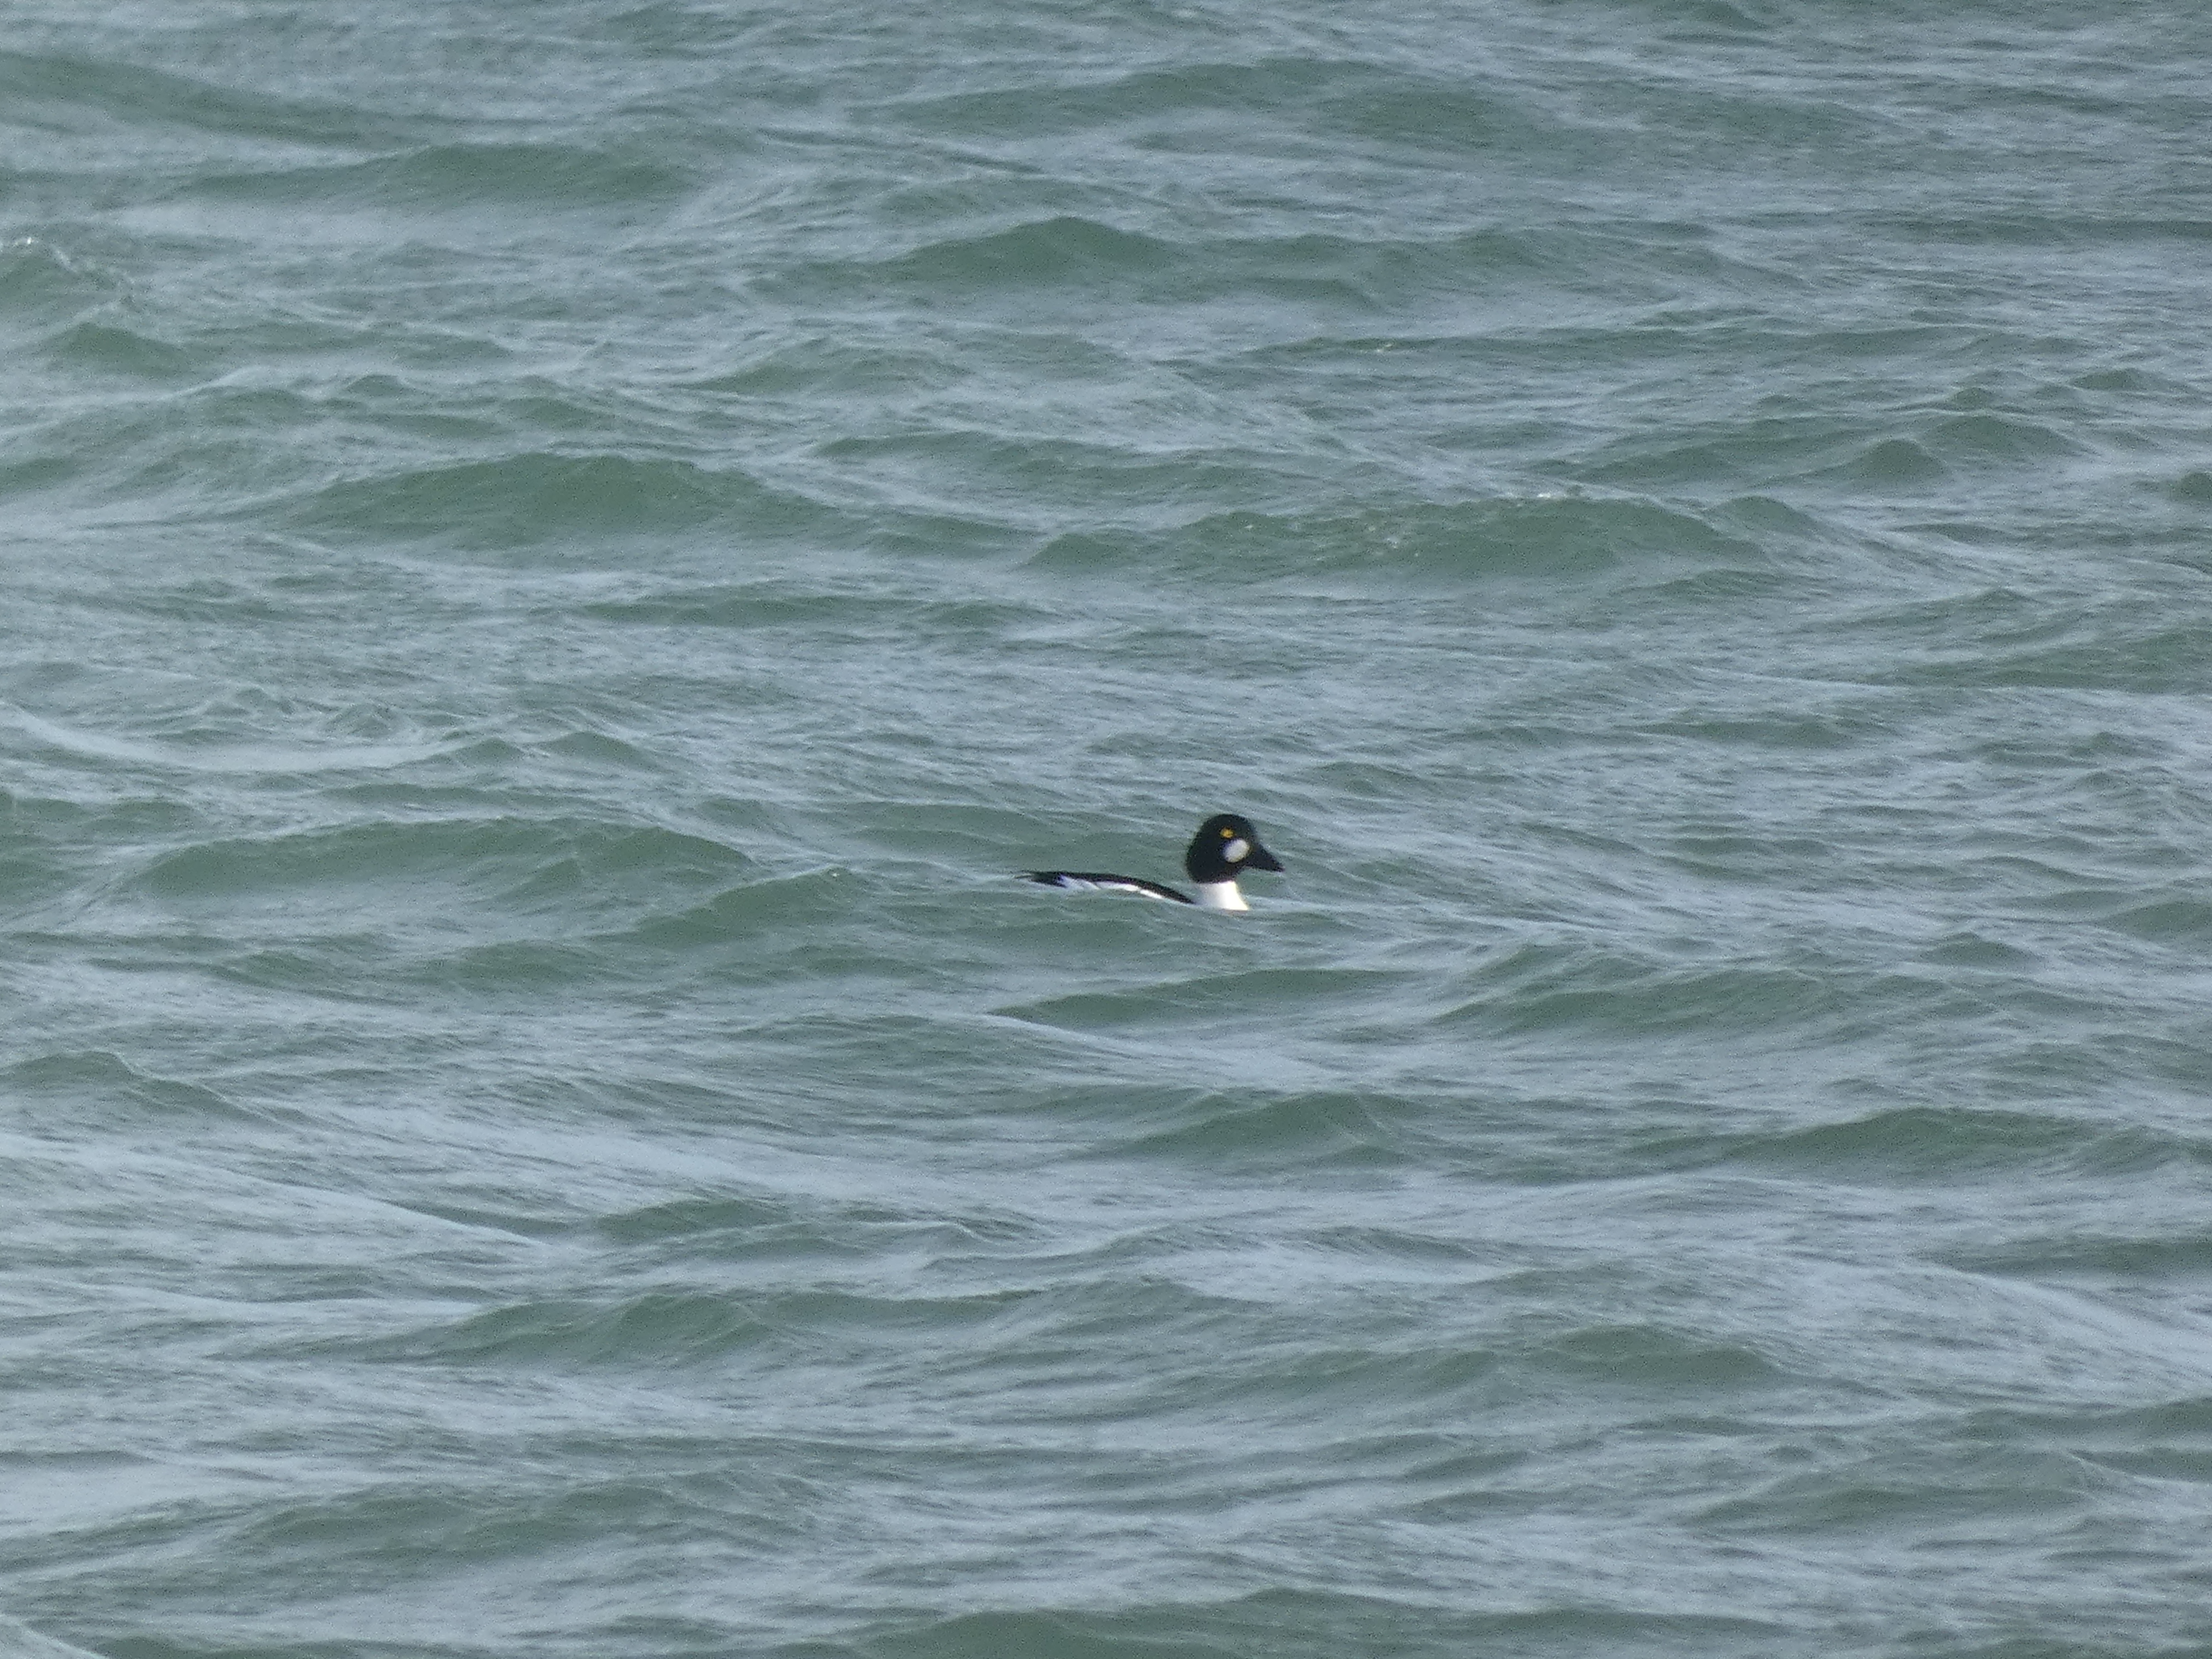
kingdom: Animalia
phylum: Chordata
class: Aves
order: Anseriformes
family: Anatidae
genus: Bucephala
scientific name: Bucephala clangula
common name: Hvinand
